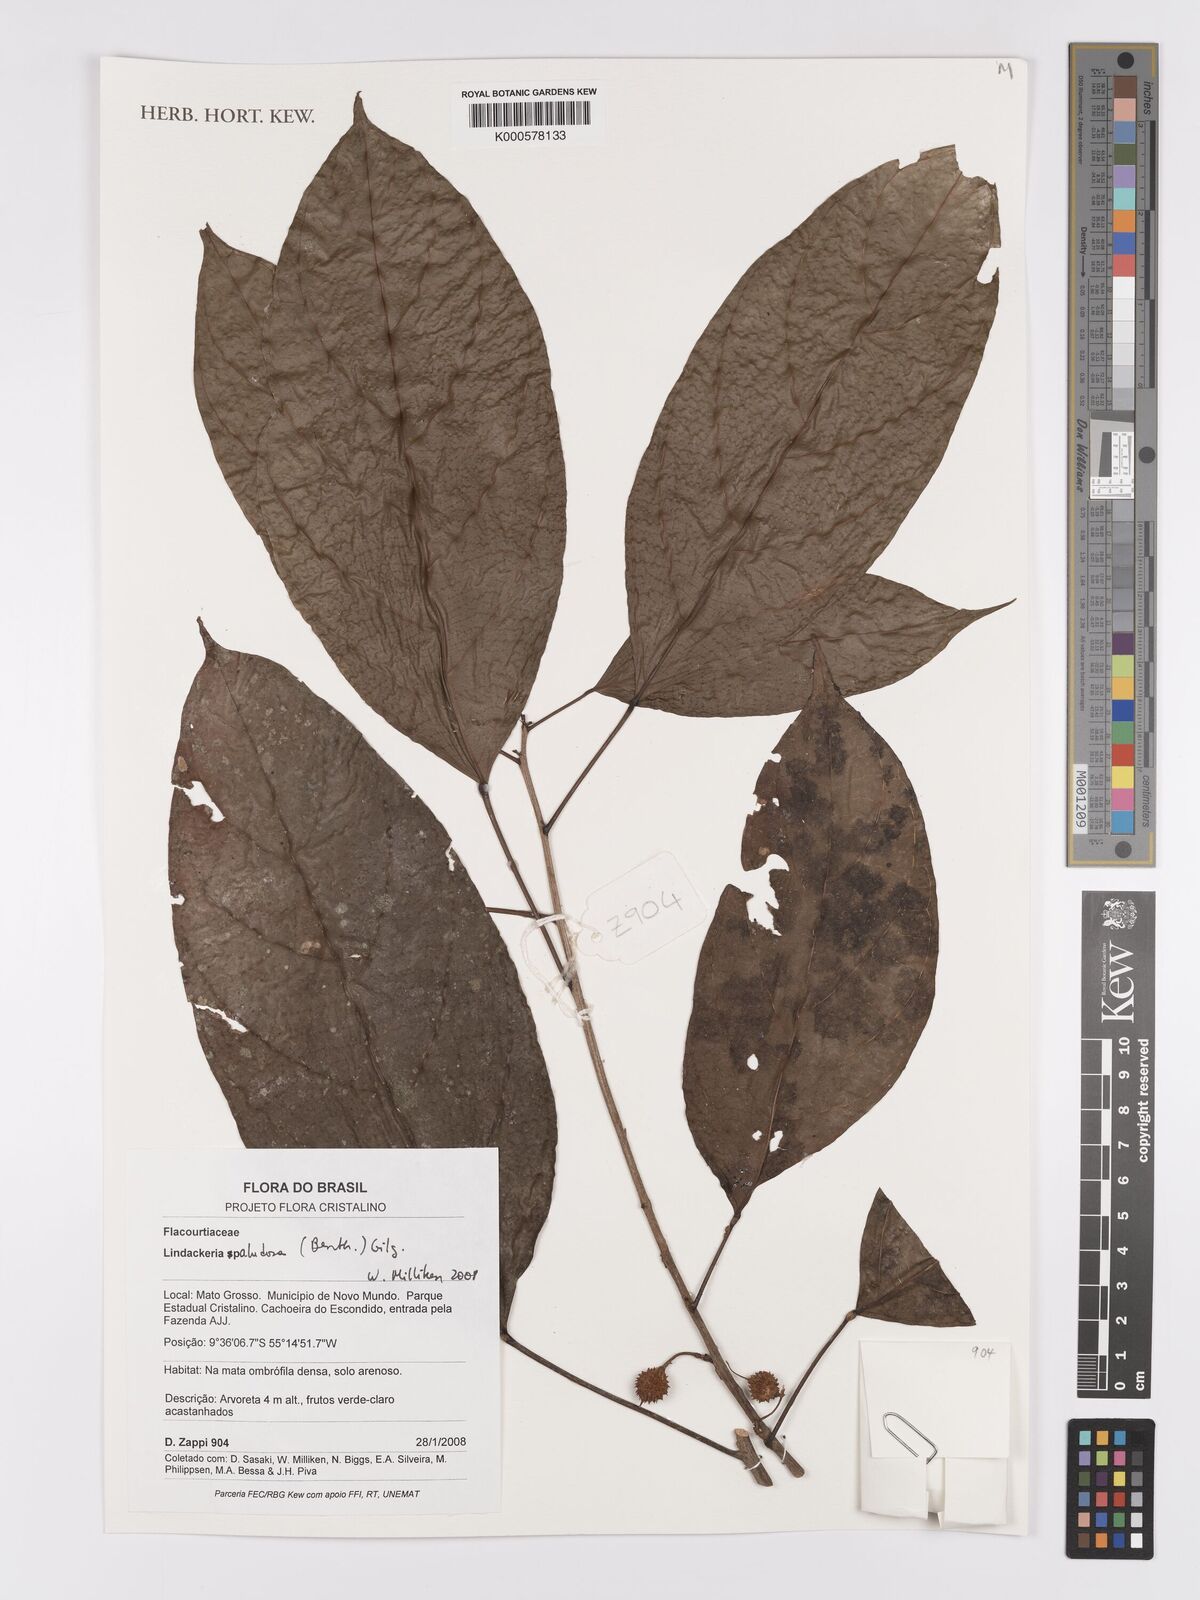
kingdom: Plantae
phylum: Tracheophyta
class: Magnoliopsida
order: Malpighiales
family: Achariaceae
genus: Lindackeria
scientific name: Lindackeria paludosa
